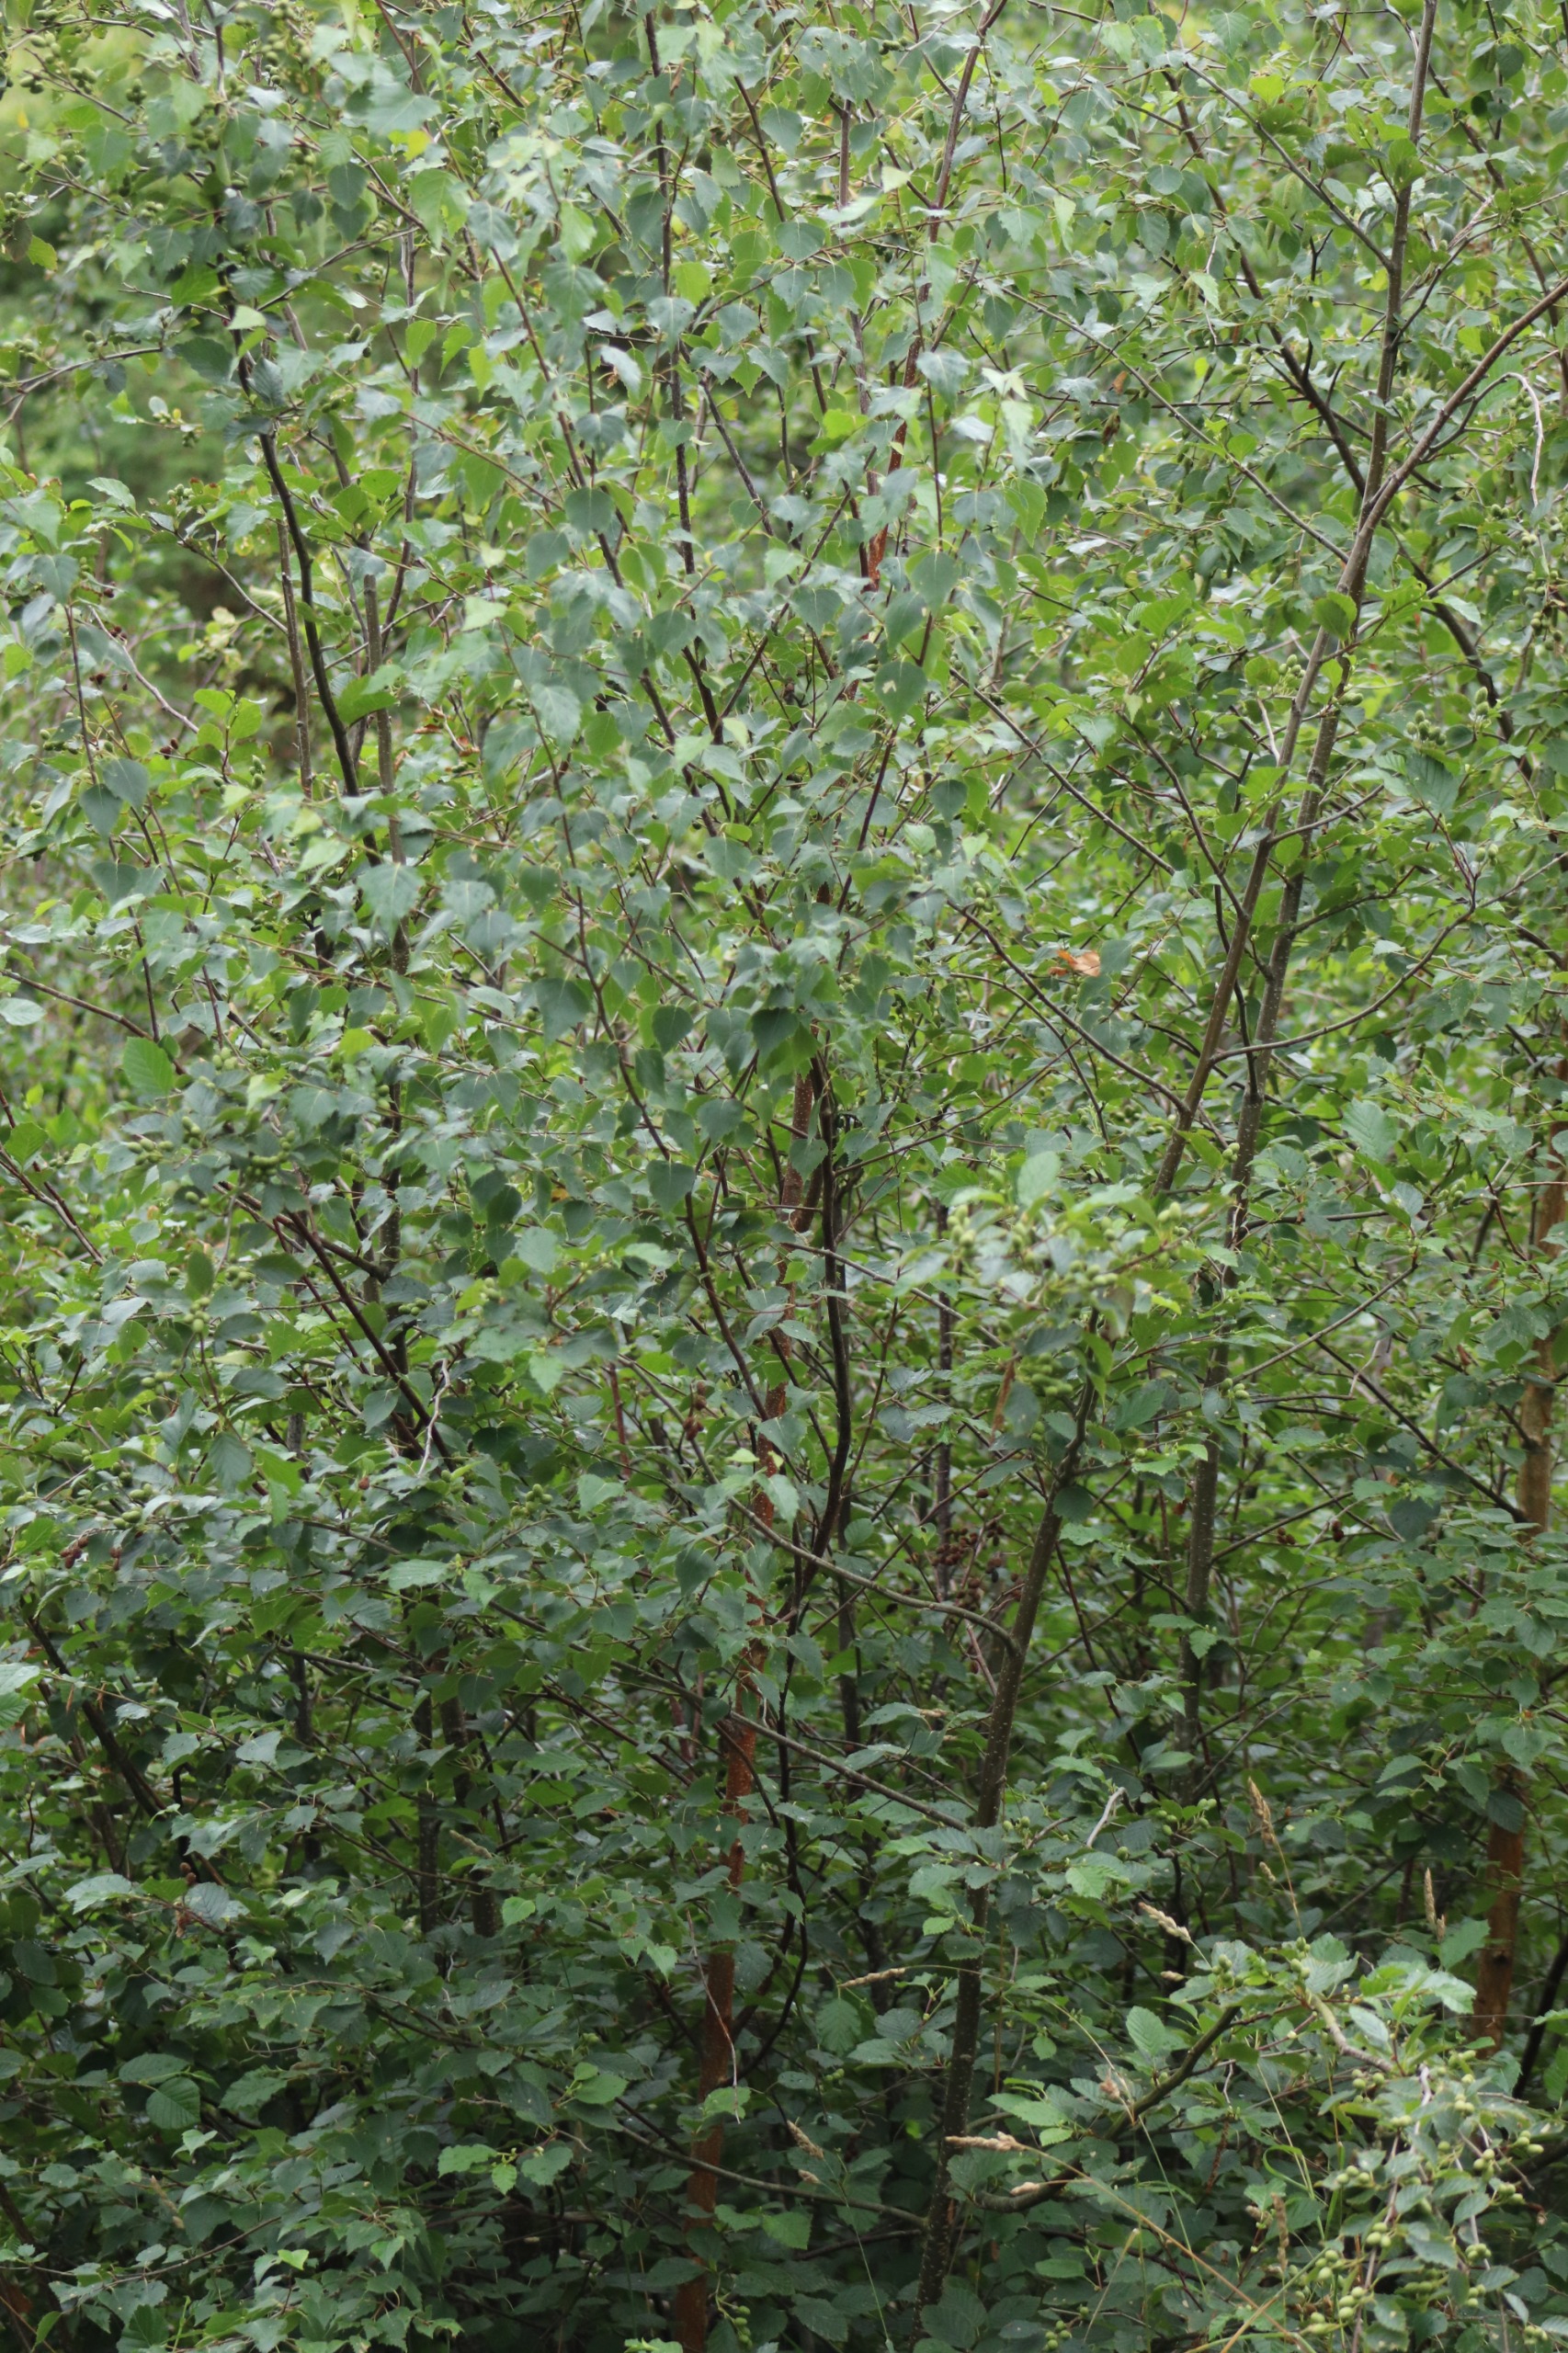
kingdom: Plantae
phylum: Tracheophyta
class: Magnoliopsida
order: Fagales
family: Betulaceae
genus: Alnus
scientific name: Alnus alnobetula
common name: Grøn el
